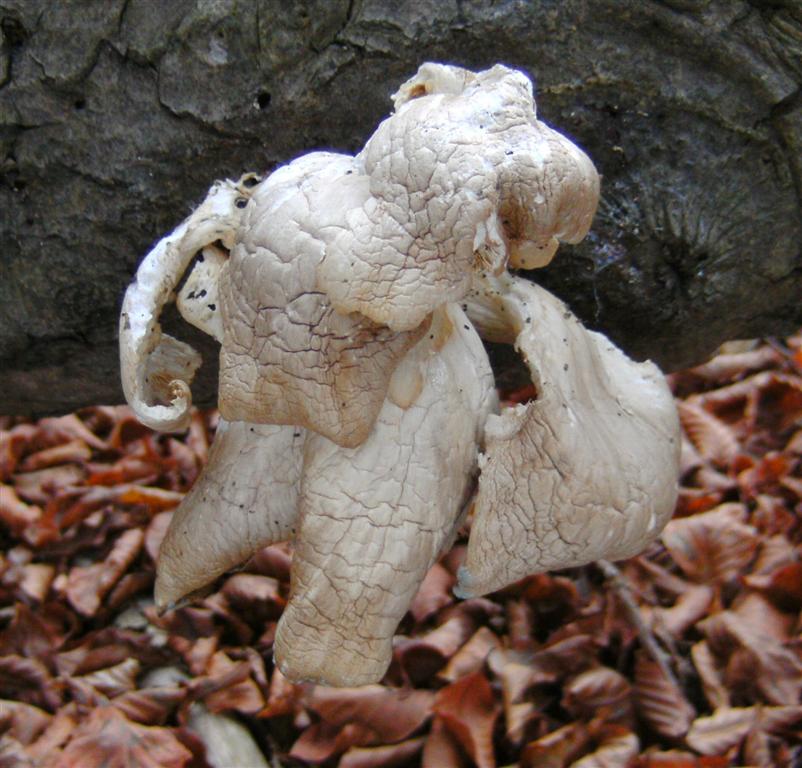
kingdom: Fungi
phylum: Basidiomycota
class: Agaricomycetes
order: Agaricales
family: Pleurotaceae
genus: Pleurotus
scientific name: Pleurotus ostreatus
